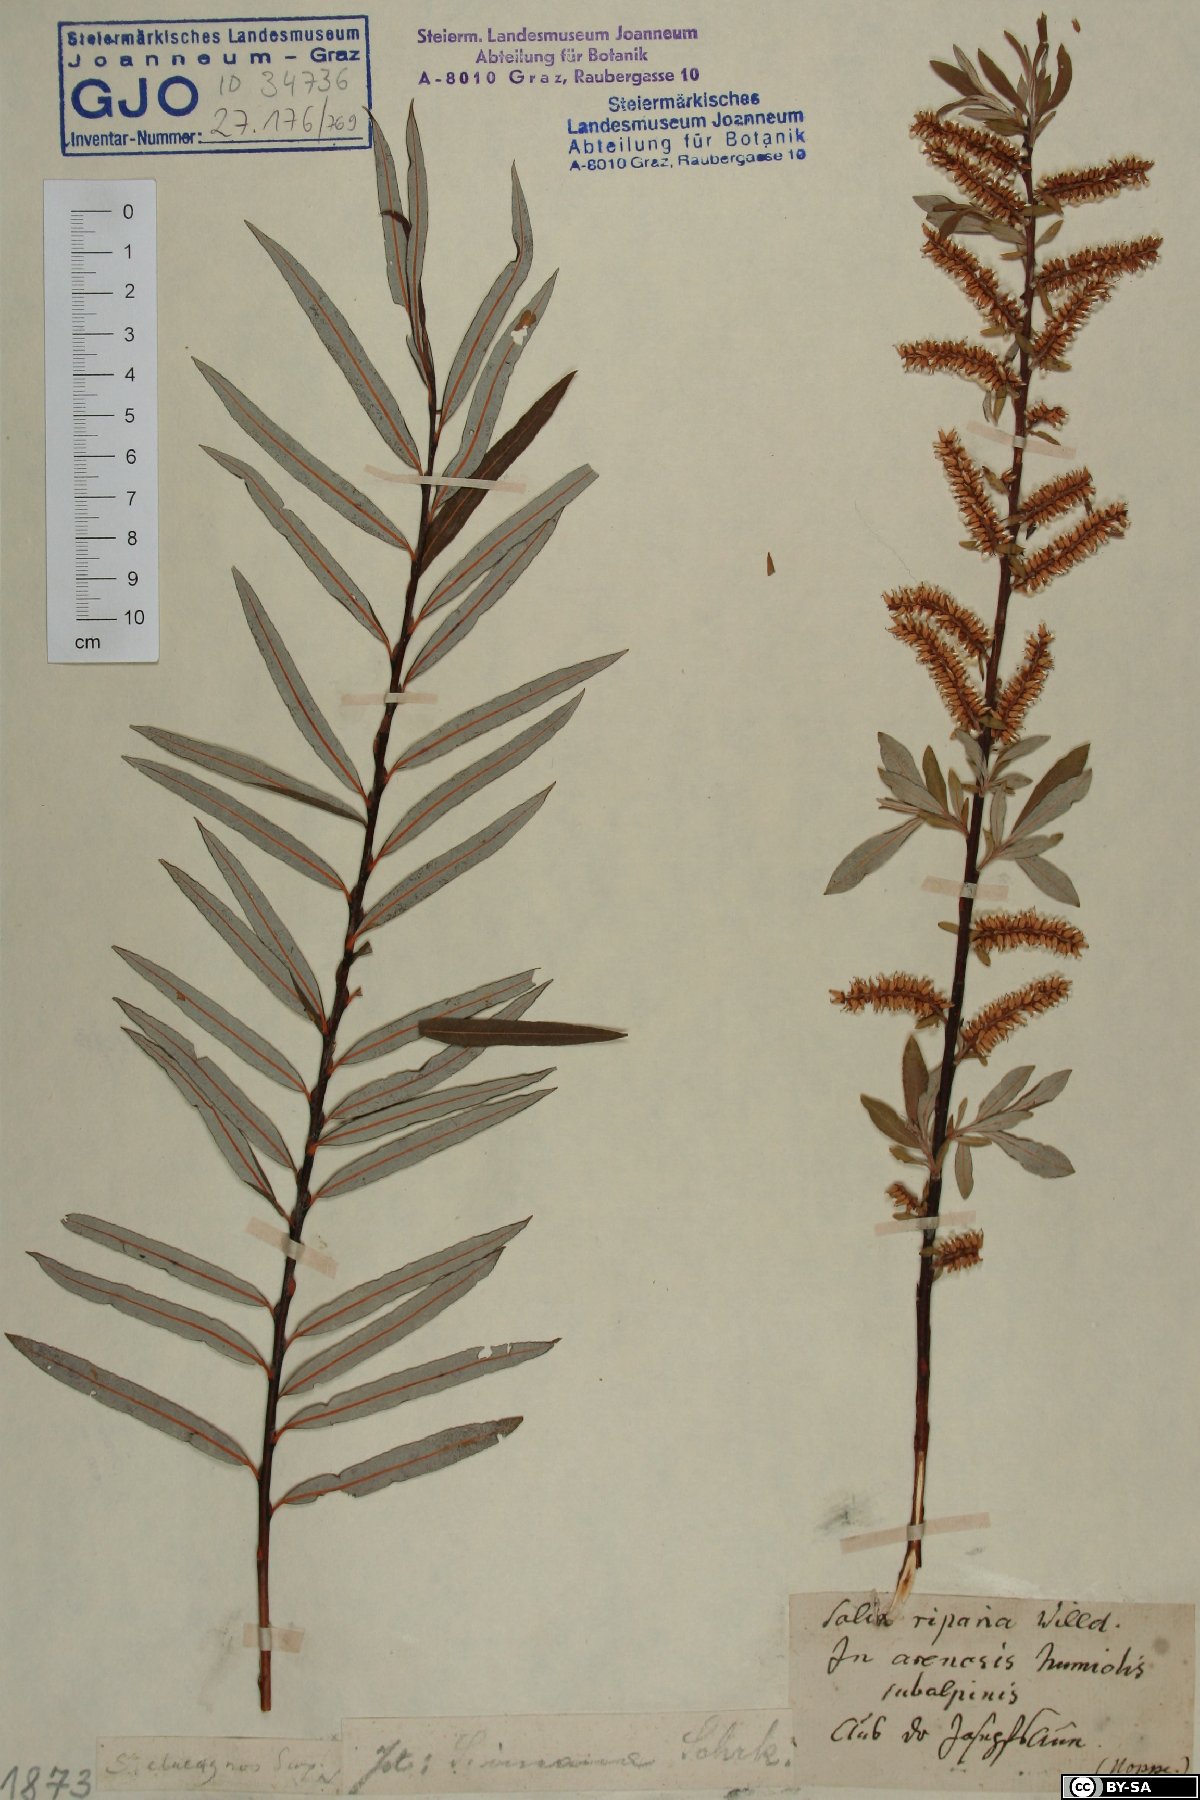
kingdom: Plantae
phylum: Tracheophyta
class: Magnoliopsida
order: Malpighiales
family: Salicaceae
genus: Salix
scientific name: Salix eleagnos
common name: Elaeagnus willow
